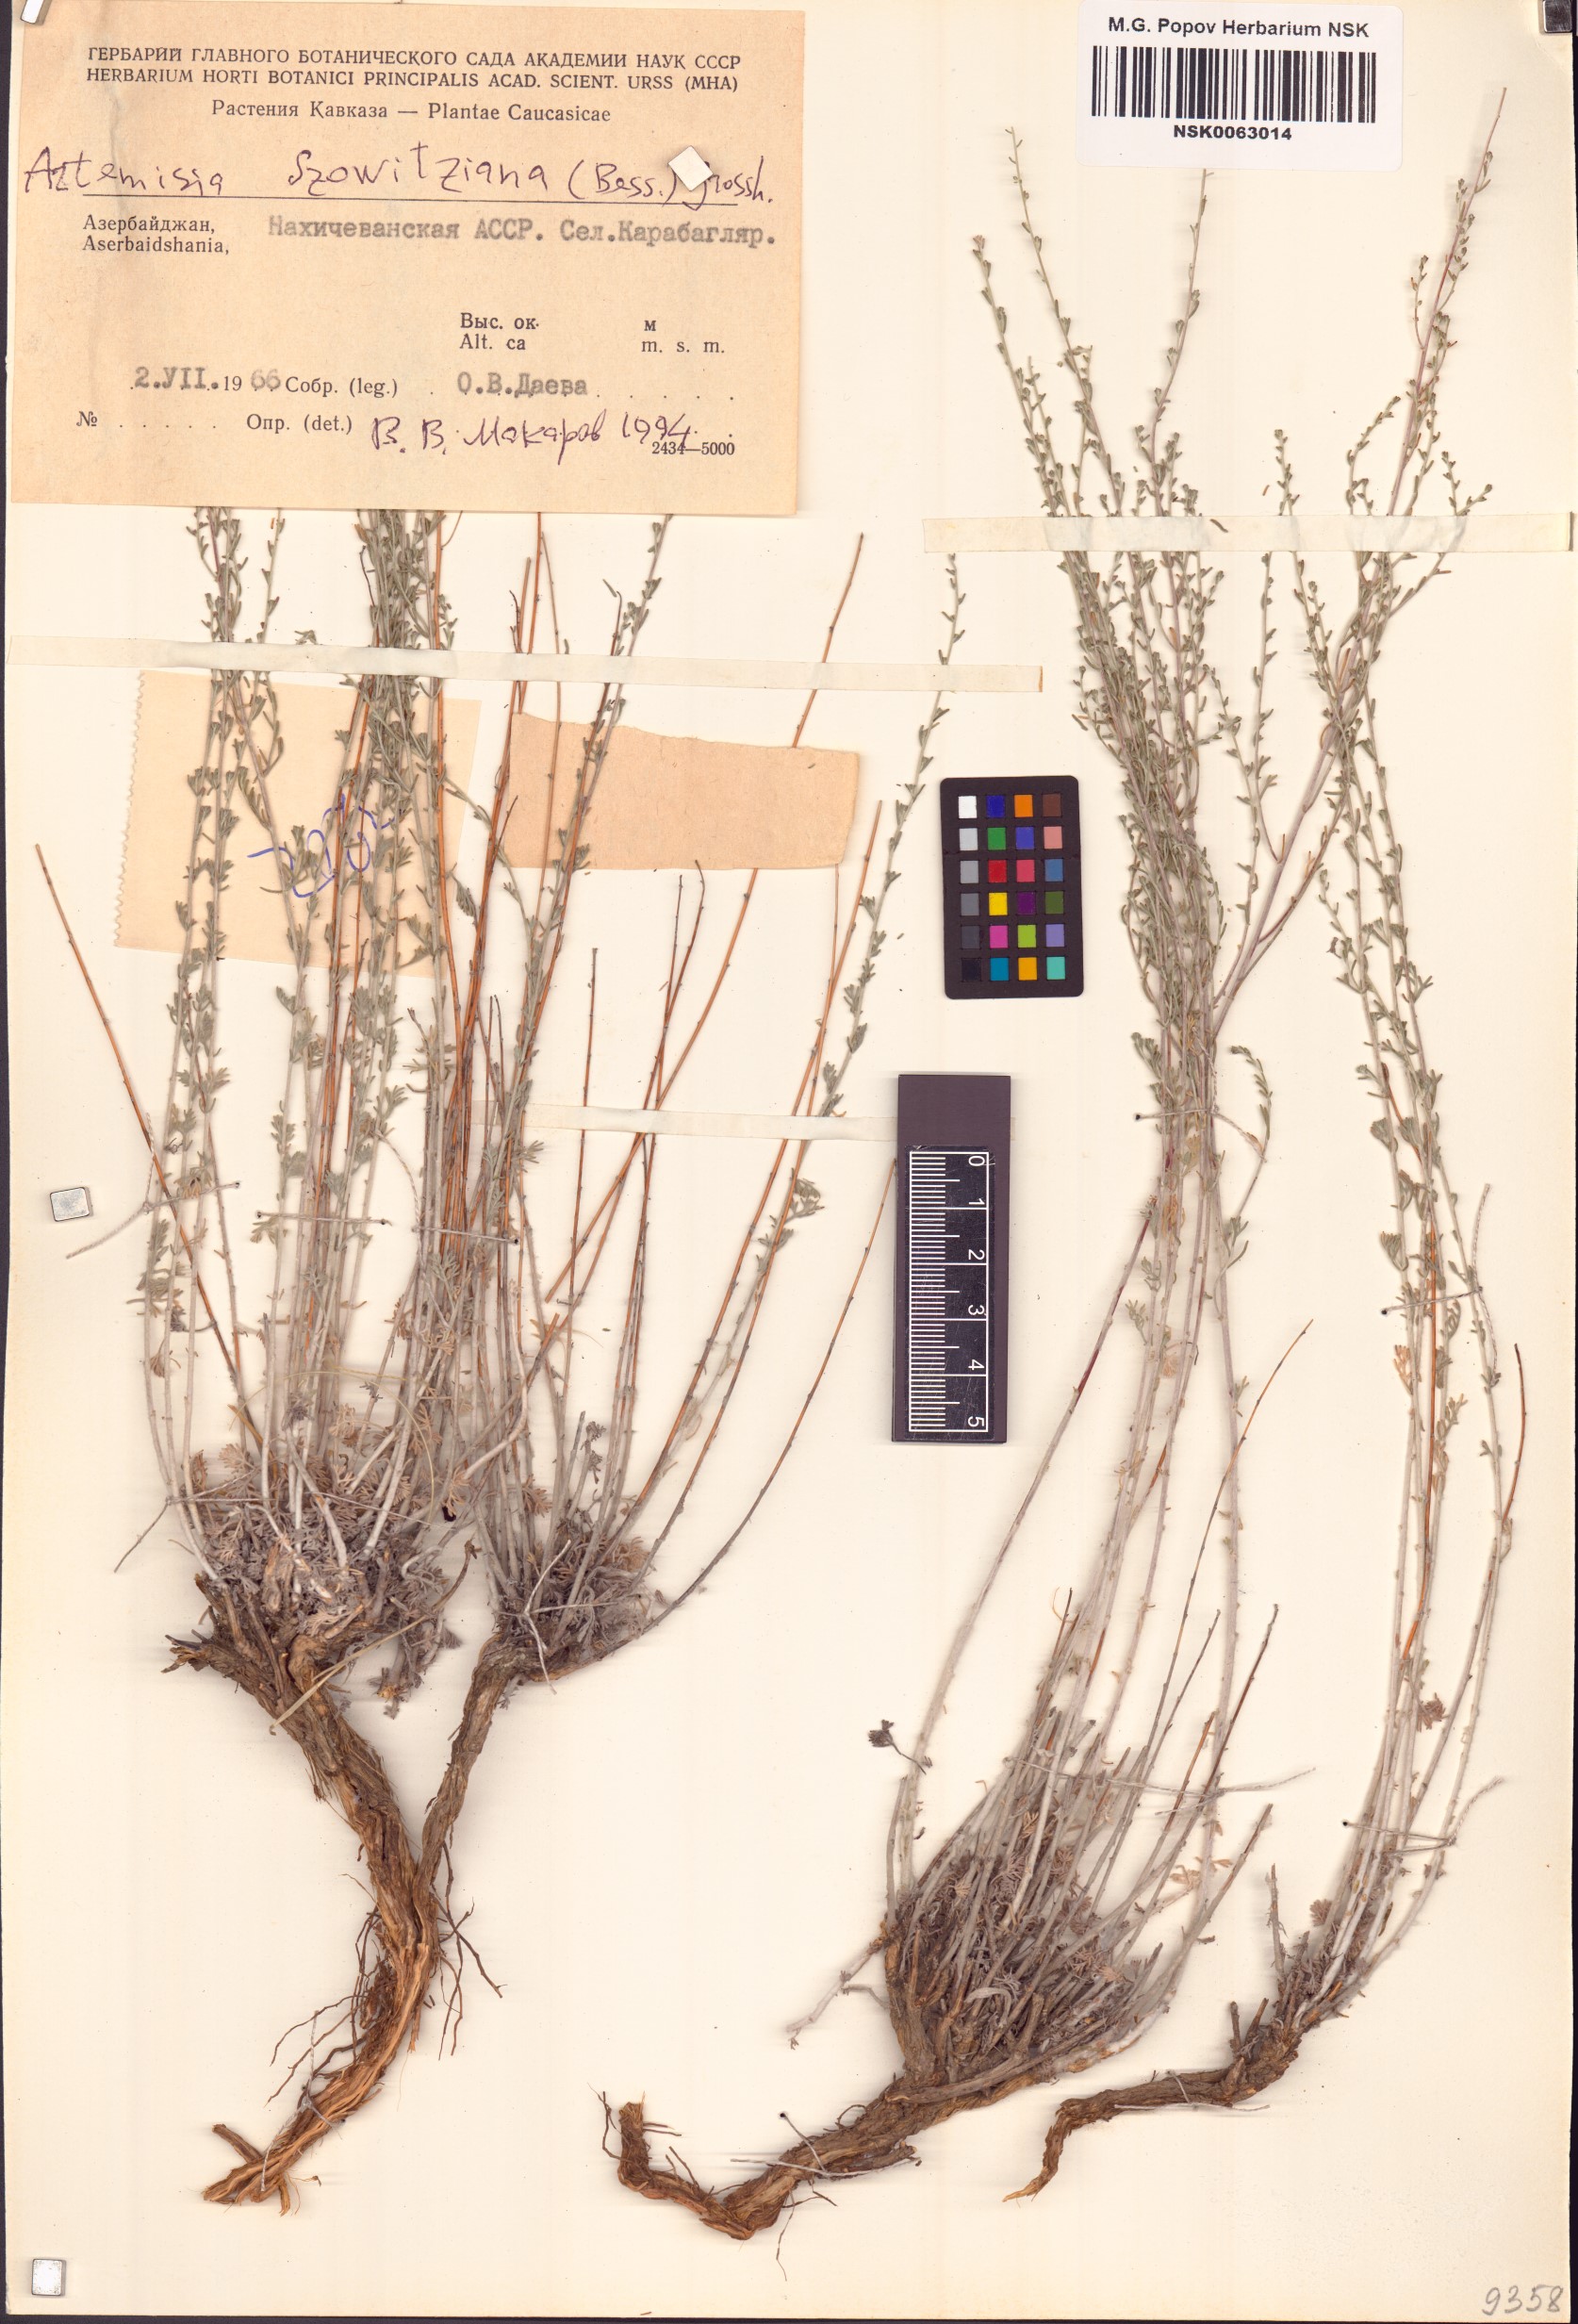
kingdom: Plantae
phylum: Tracheophyta
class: Magnoliopsida
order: Asterales
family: Asteraceae
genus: Artemisia
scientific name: Artemisia szowitziana
